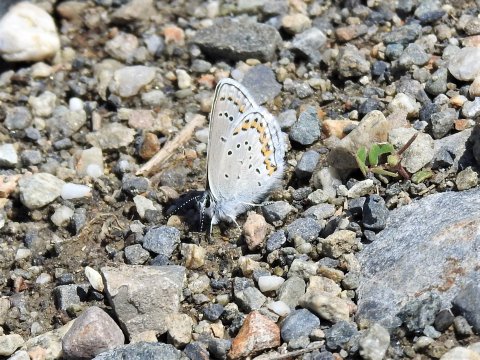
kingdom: Animalia
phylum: Arthropoda
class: Insecta
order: Lepidoptera
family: Lycaenidae
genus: Lycaeides
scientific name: Lycaeides melissa
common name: Melissa Blue
